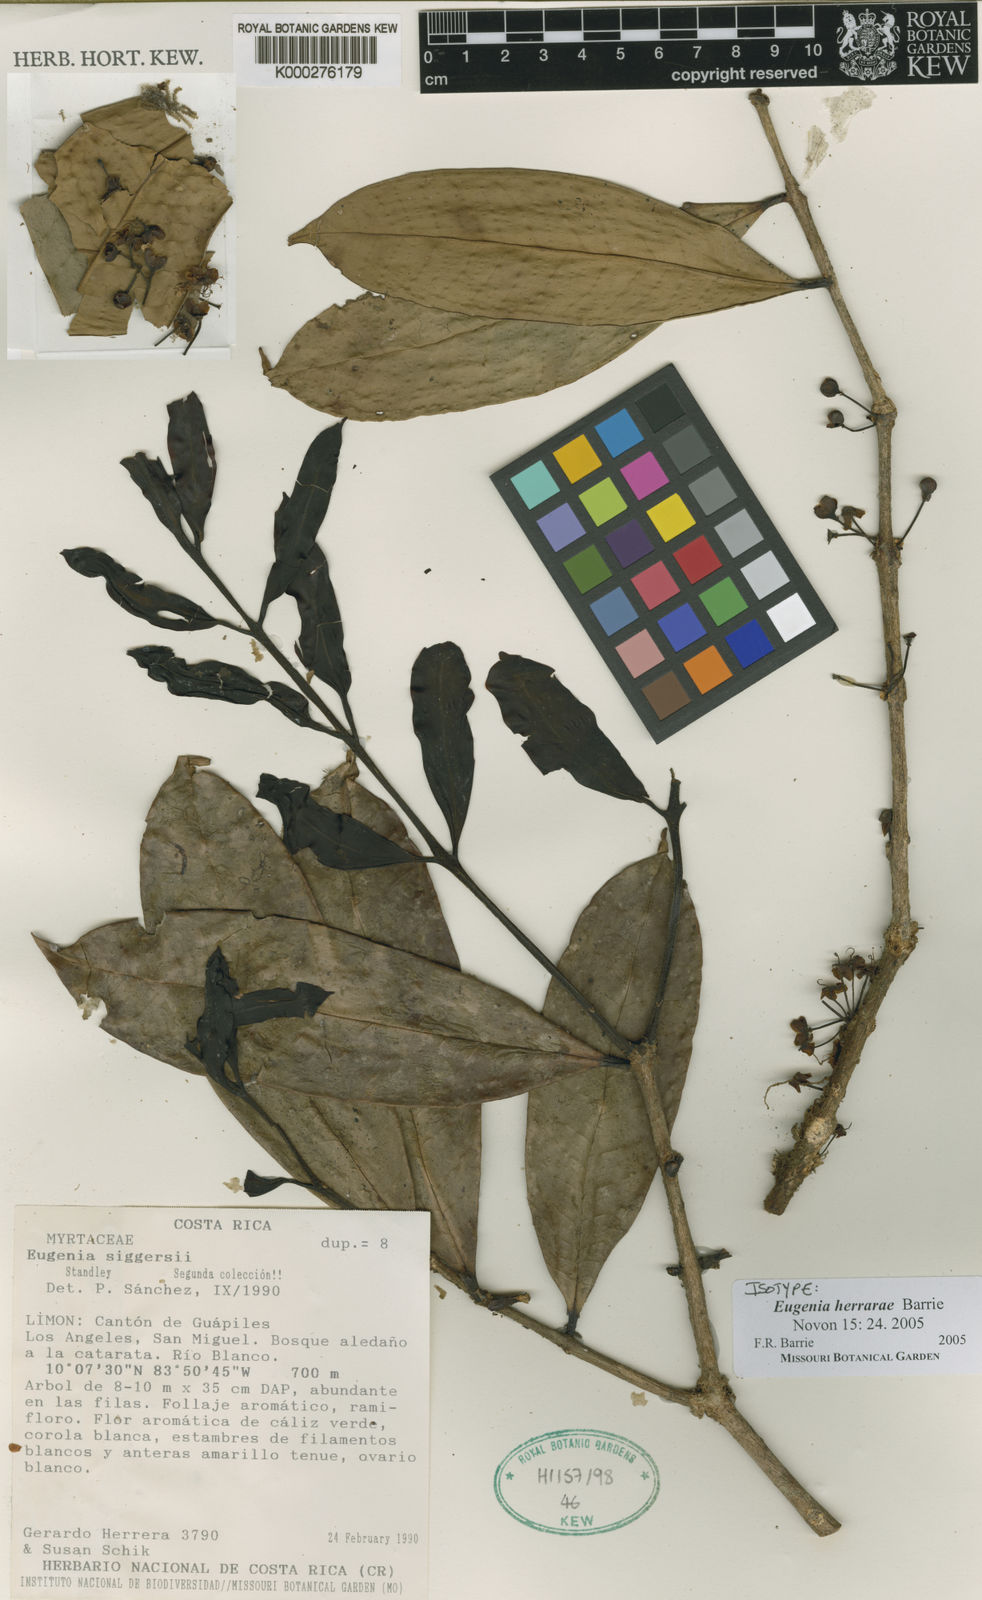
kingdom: Plantae
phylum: Tracheophyta
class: Magnoliopsida
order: Myrtales
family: Myrtaceae
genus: Eugenia
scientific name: Eugenia
